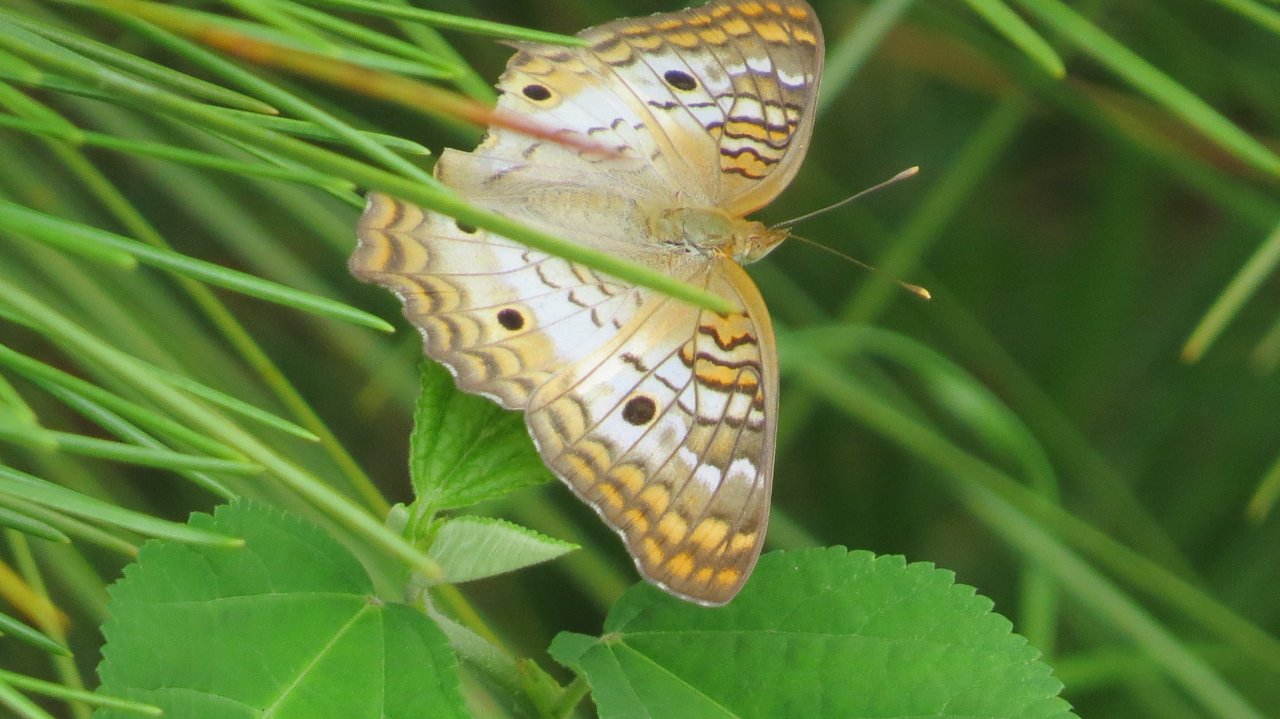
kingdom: Animalia
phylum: Arthropoda
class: Insecta
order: Lepidoptera
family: Nymphalidae
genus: Anartia
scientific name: Anartia jatrophae
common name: White Peacock
